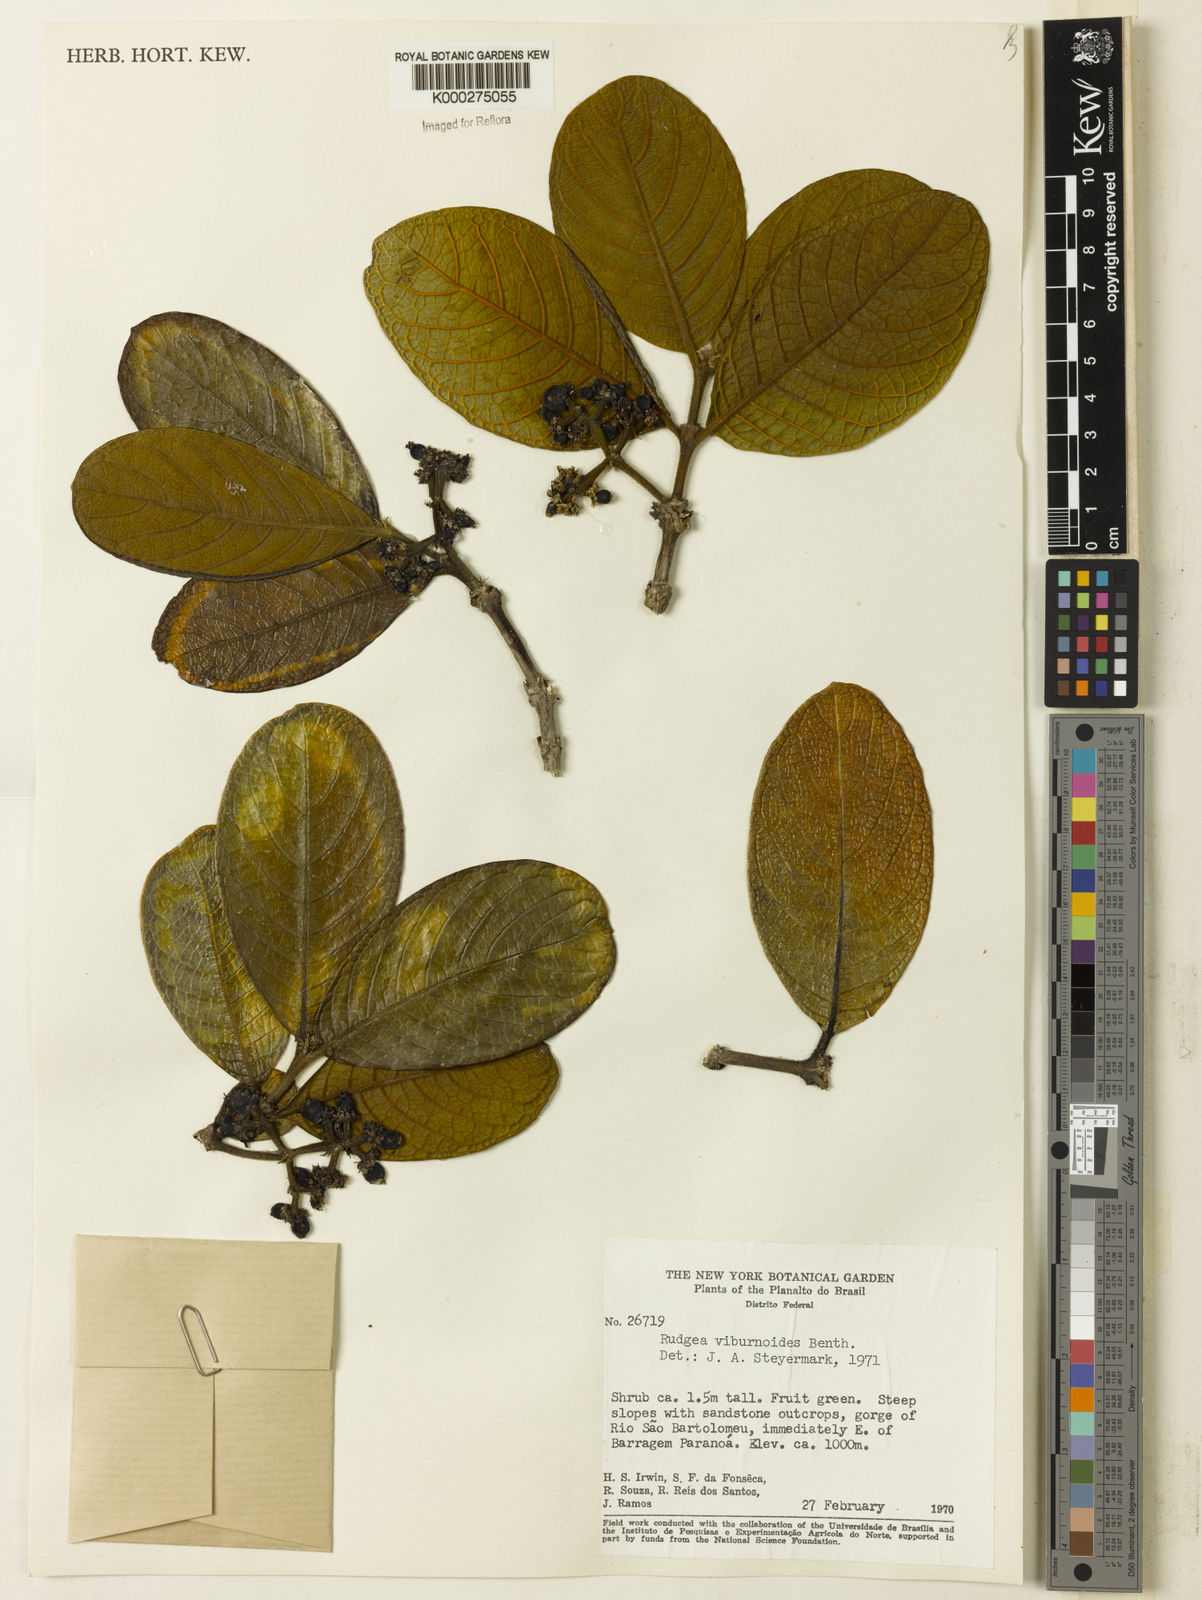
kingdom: Plantae
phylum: Tracheophyta
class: Magnoliopsida
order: Gentianales
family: Rubiaceae
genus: Rudgea
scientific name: Rudgea viburnoides
